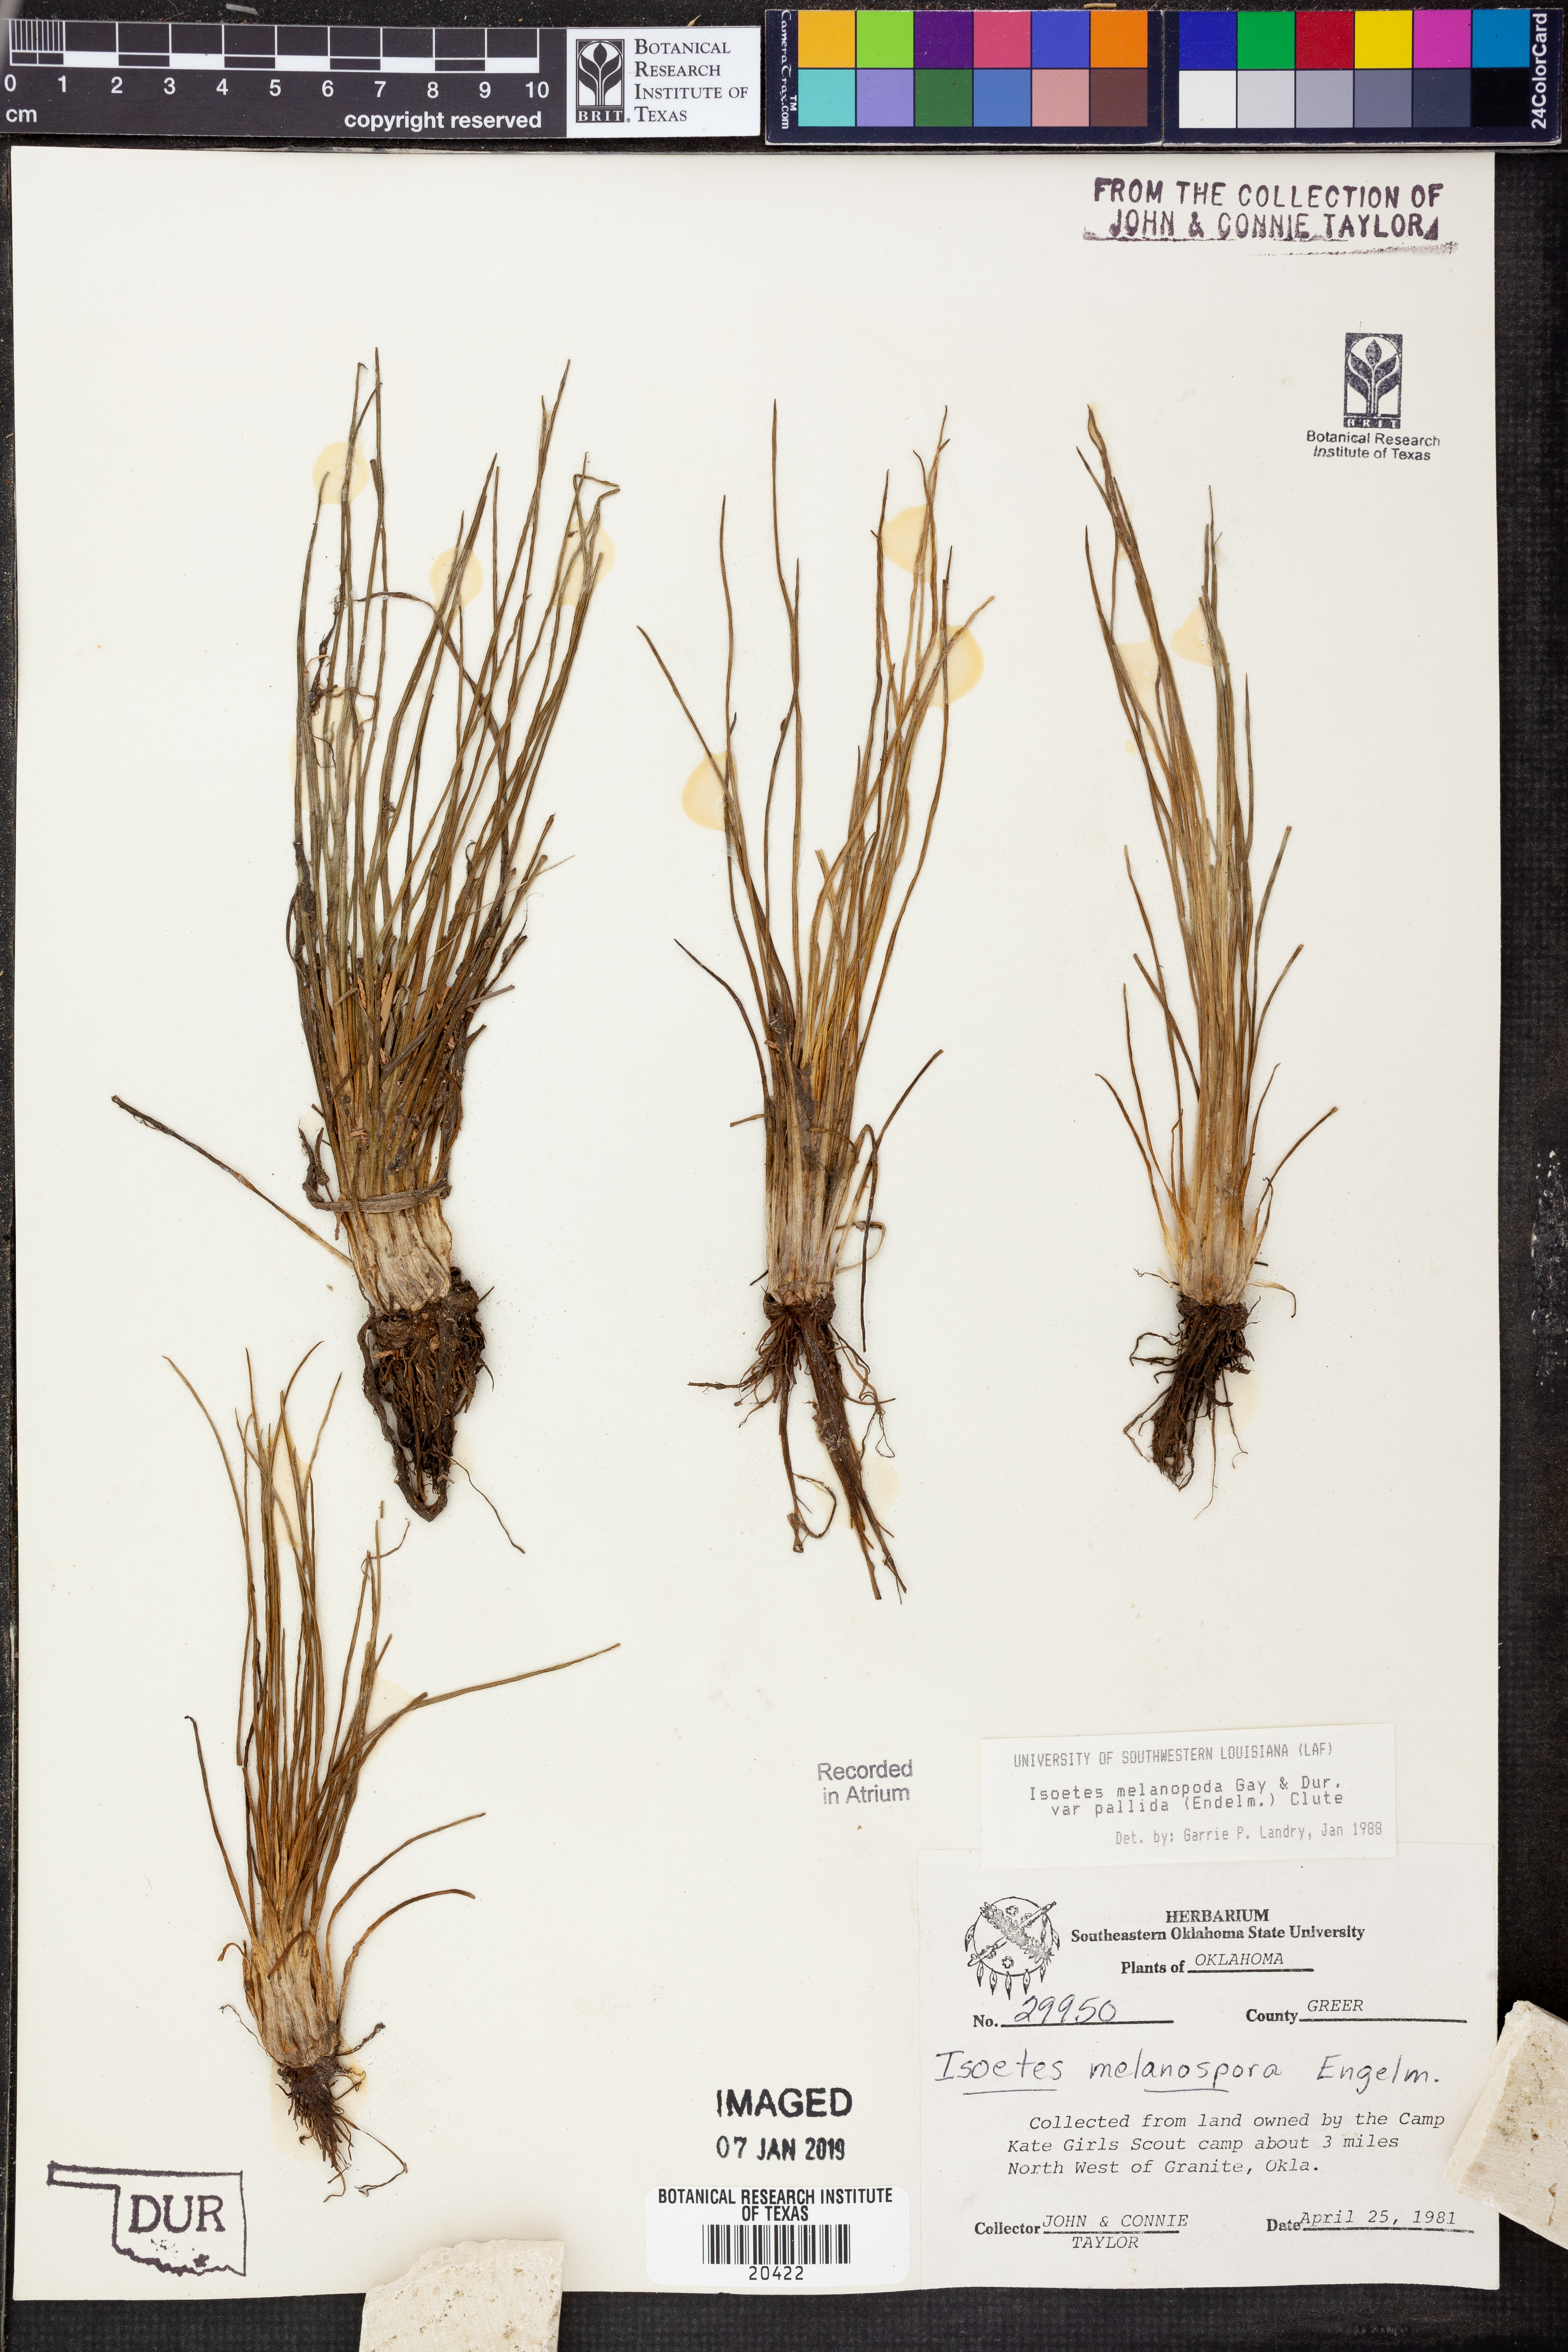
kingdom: Plantae
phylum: Tracheophyta
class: Lycopodiopsida
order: Isoetales
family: Isoetaceae
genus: Isoetes
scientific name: Isoetes melanopoda
